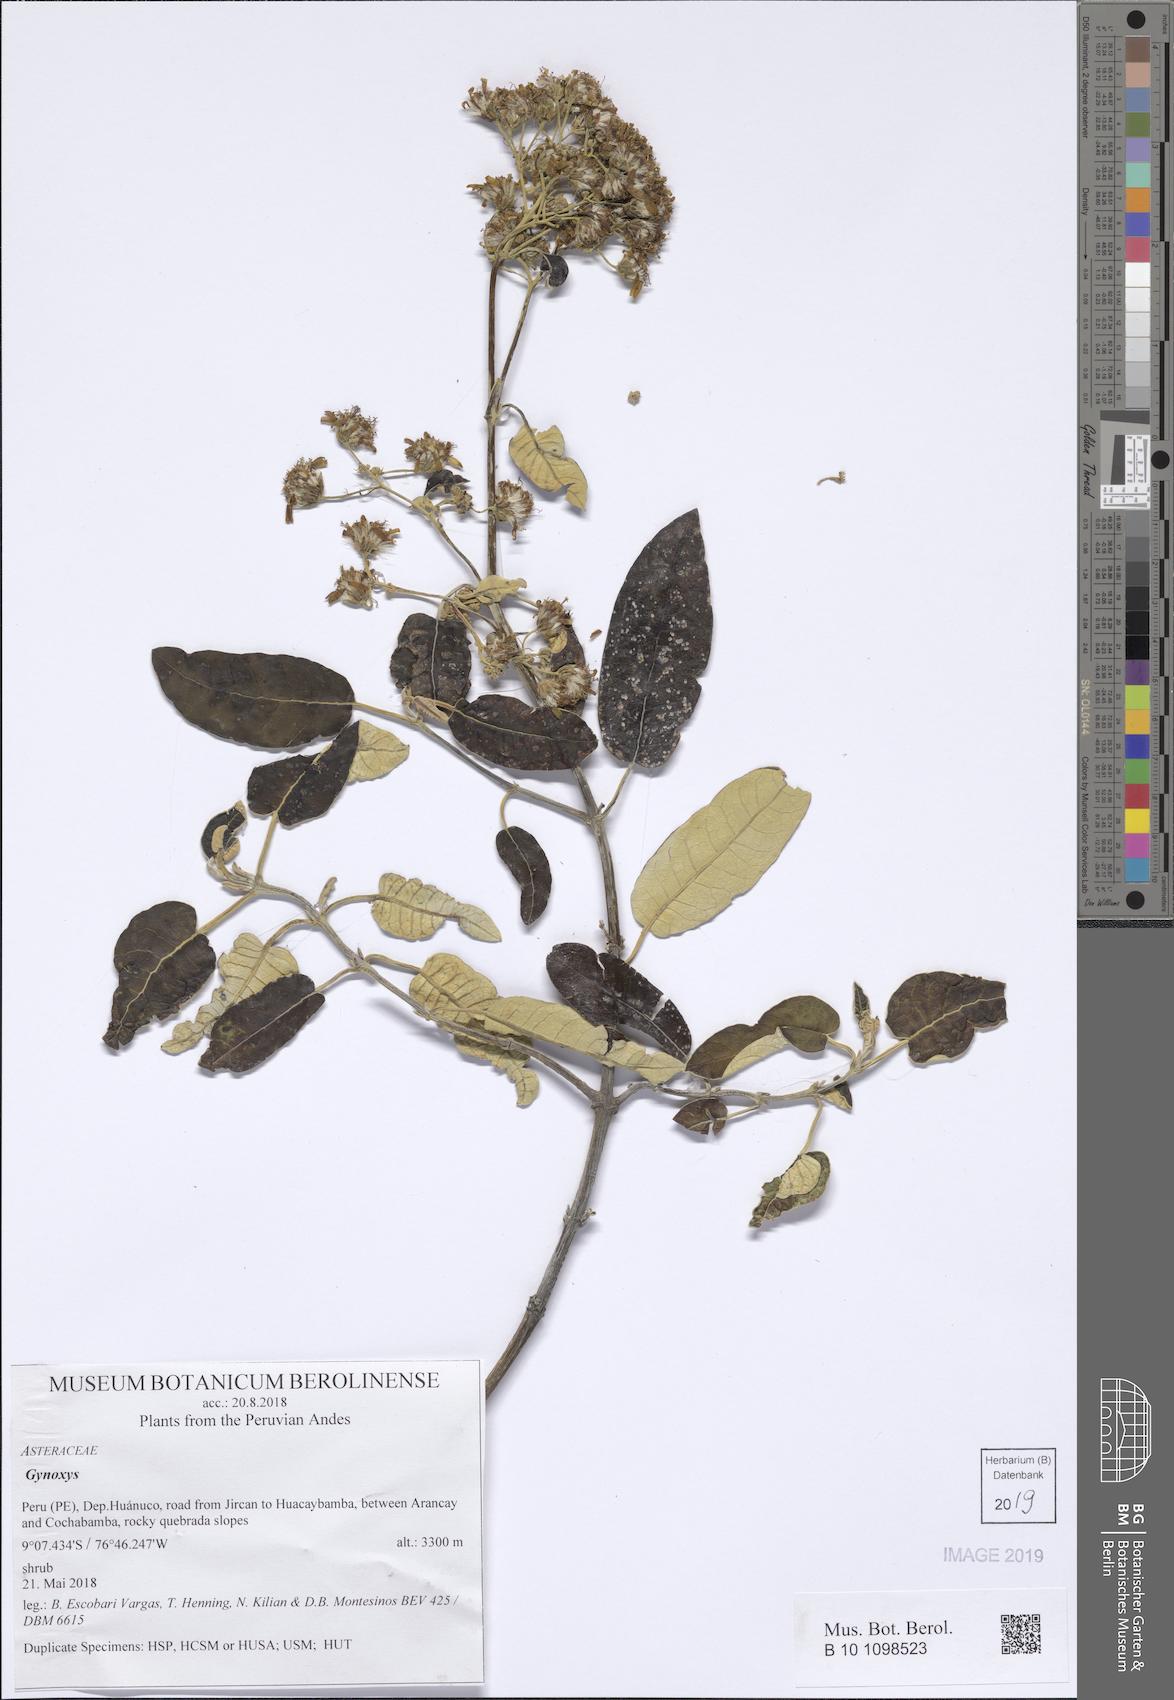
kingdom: Plantae
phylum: Tracheophyta
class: Magnoliopsida
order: Asterales
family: Asteraceae
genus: Gynoxys
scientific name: Gynoxys
